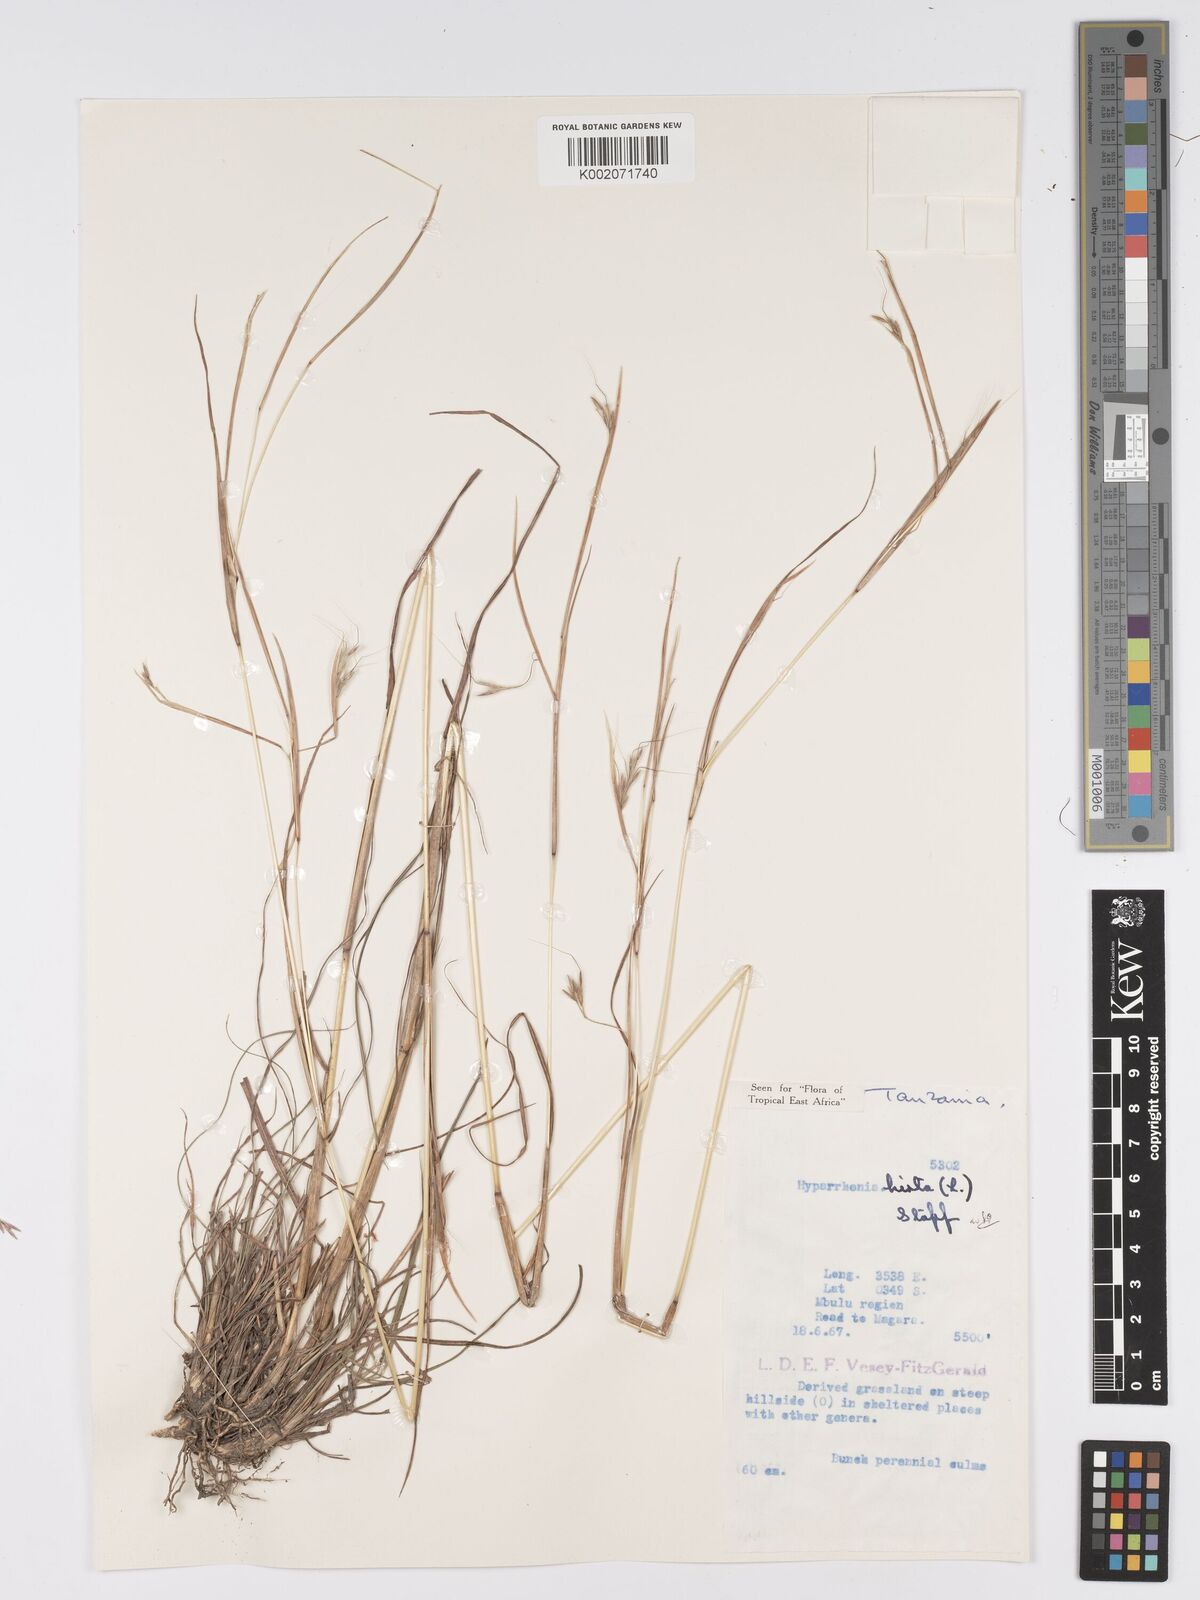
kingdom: Plantae
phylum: Tracheophyta
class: Liliopsida
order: Poales
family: Poaceae
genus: Hyparrhenia
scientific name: Hyparrhenia hirta
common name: Thatching grass
